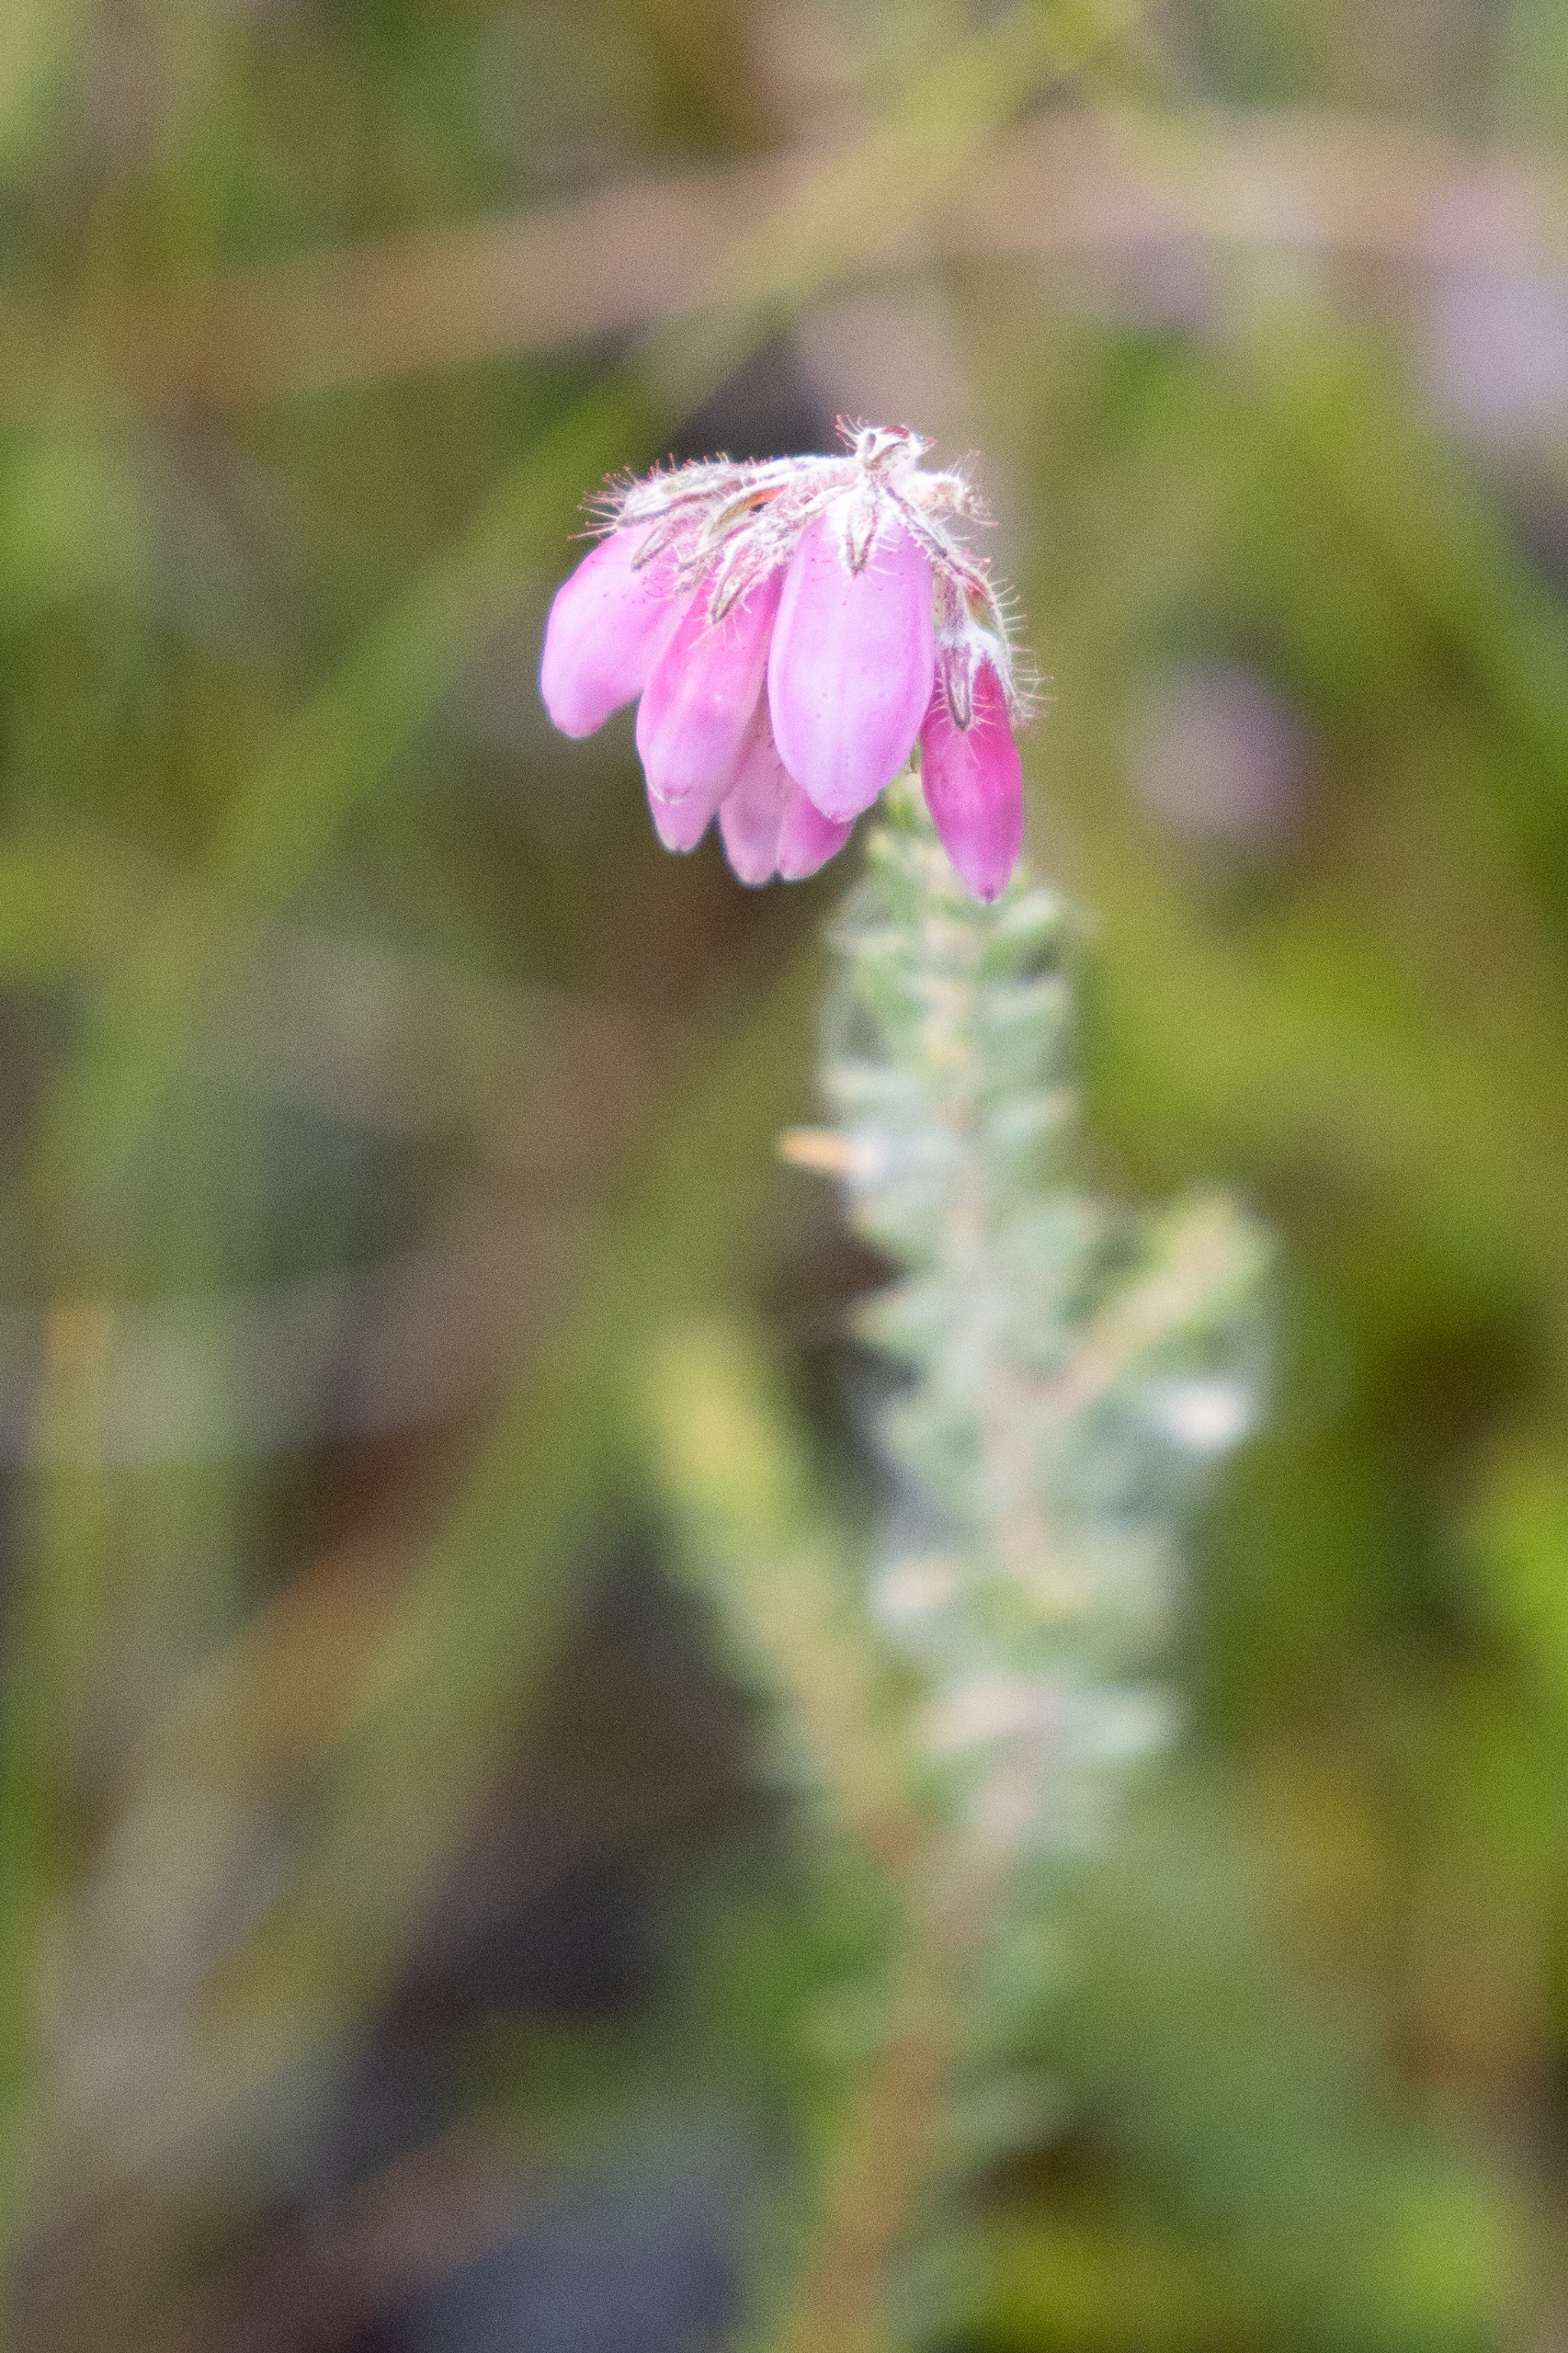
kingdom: Plantae
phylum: Tracheophyta
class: Magnoliopsida
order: Ericales
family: Ericaceae
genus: Erica
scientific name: Erica tetralix
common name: Klokkelyng
